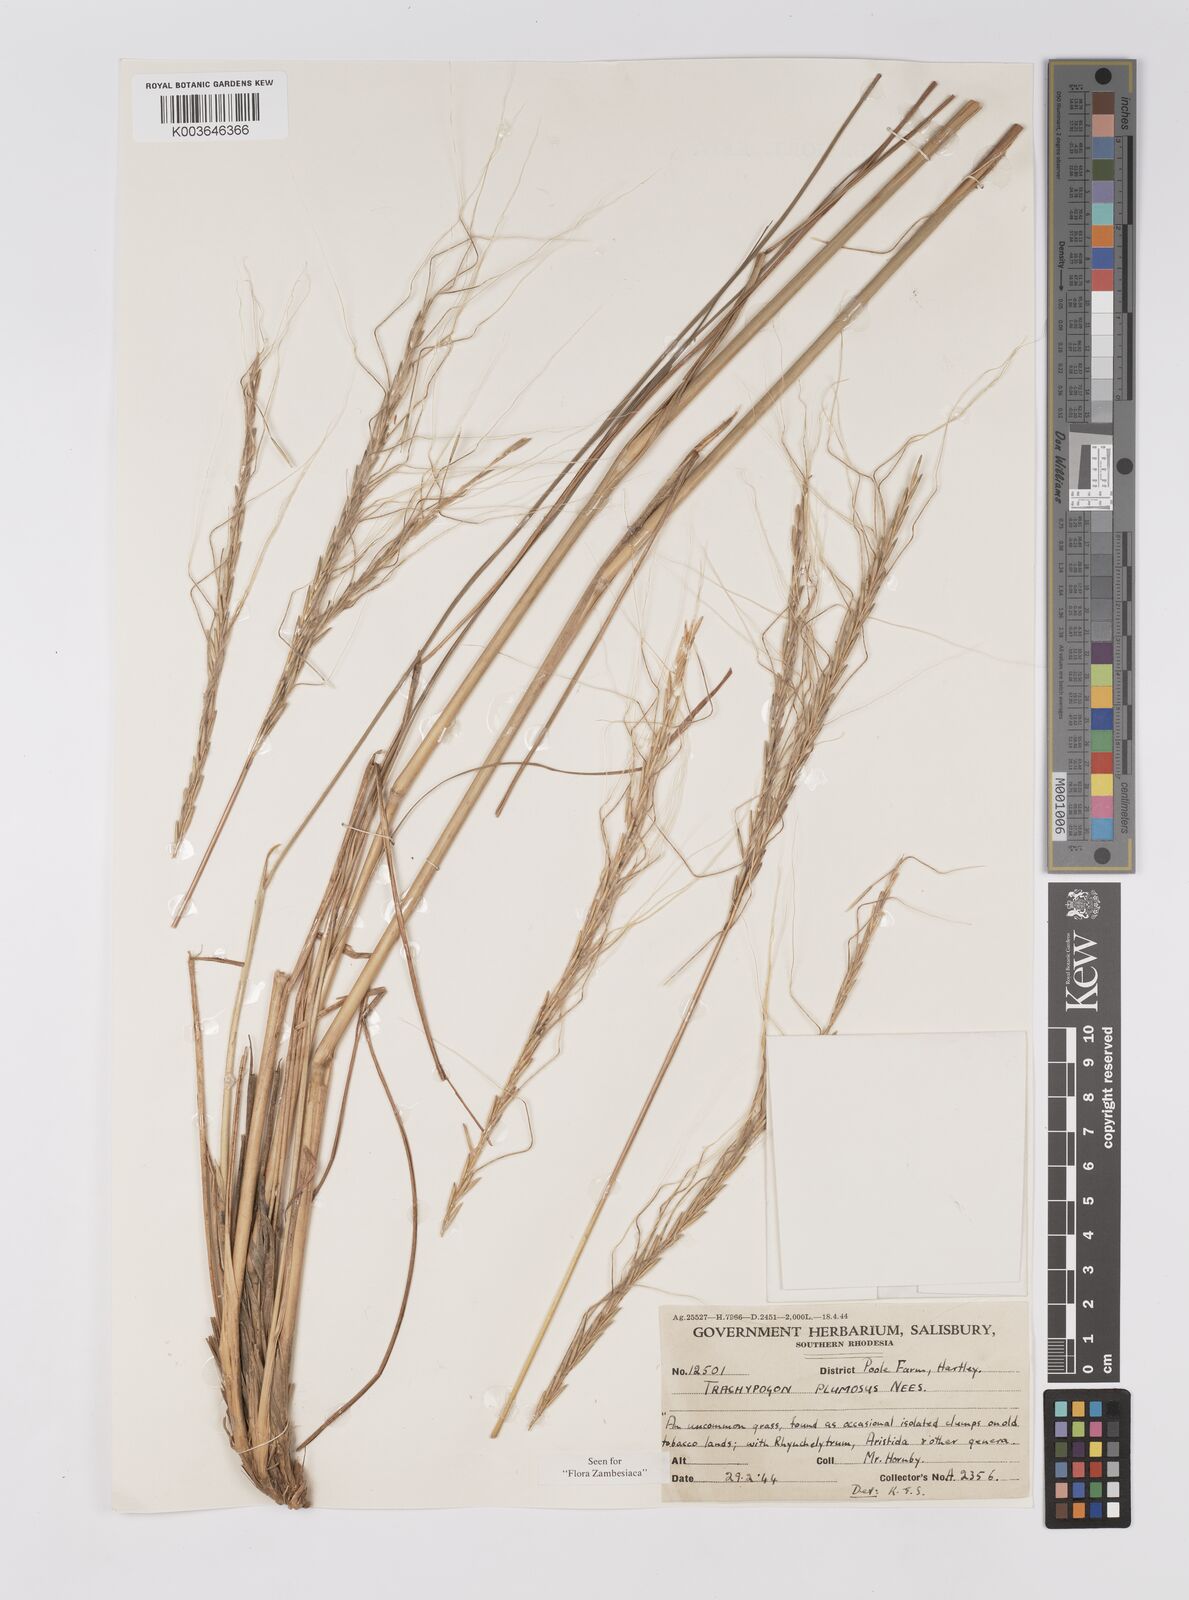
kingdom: Plantae
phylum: Tracheophyta
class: Liliopsida
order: Poales
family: Poaceae
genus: Trachypogon
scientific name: Trachypogon spicatus
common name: Crinkle-awn
